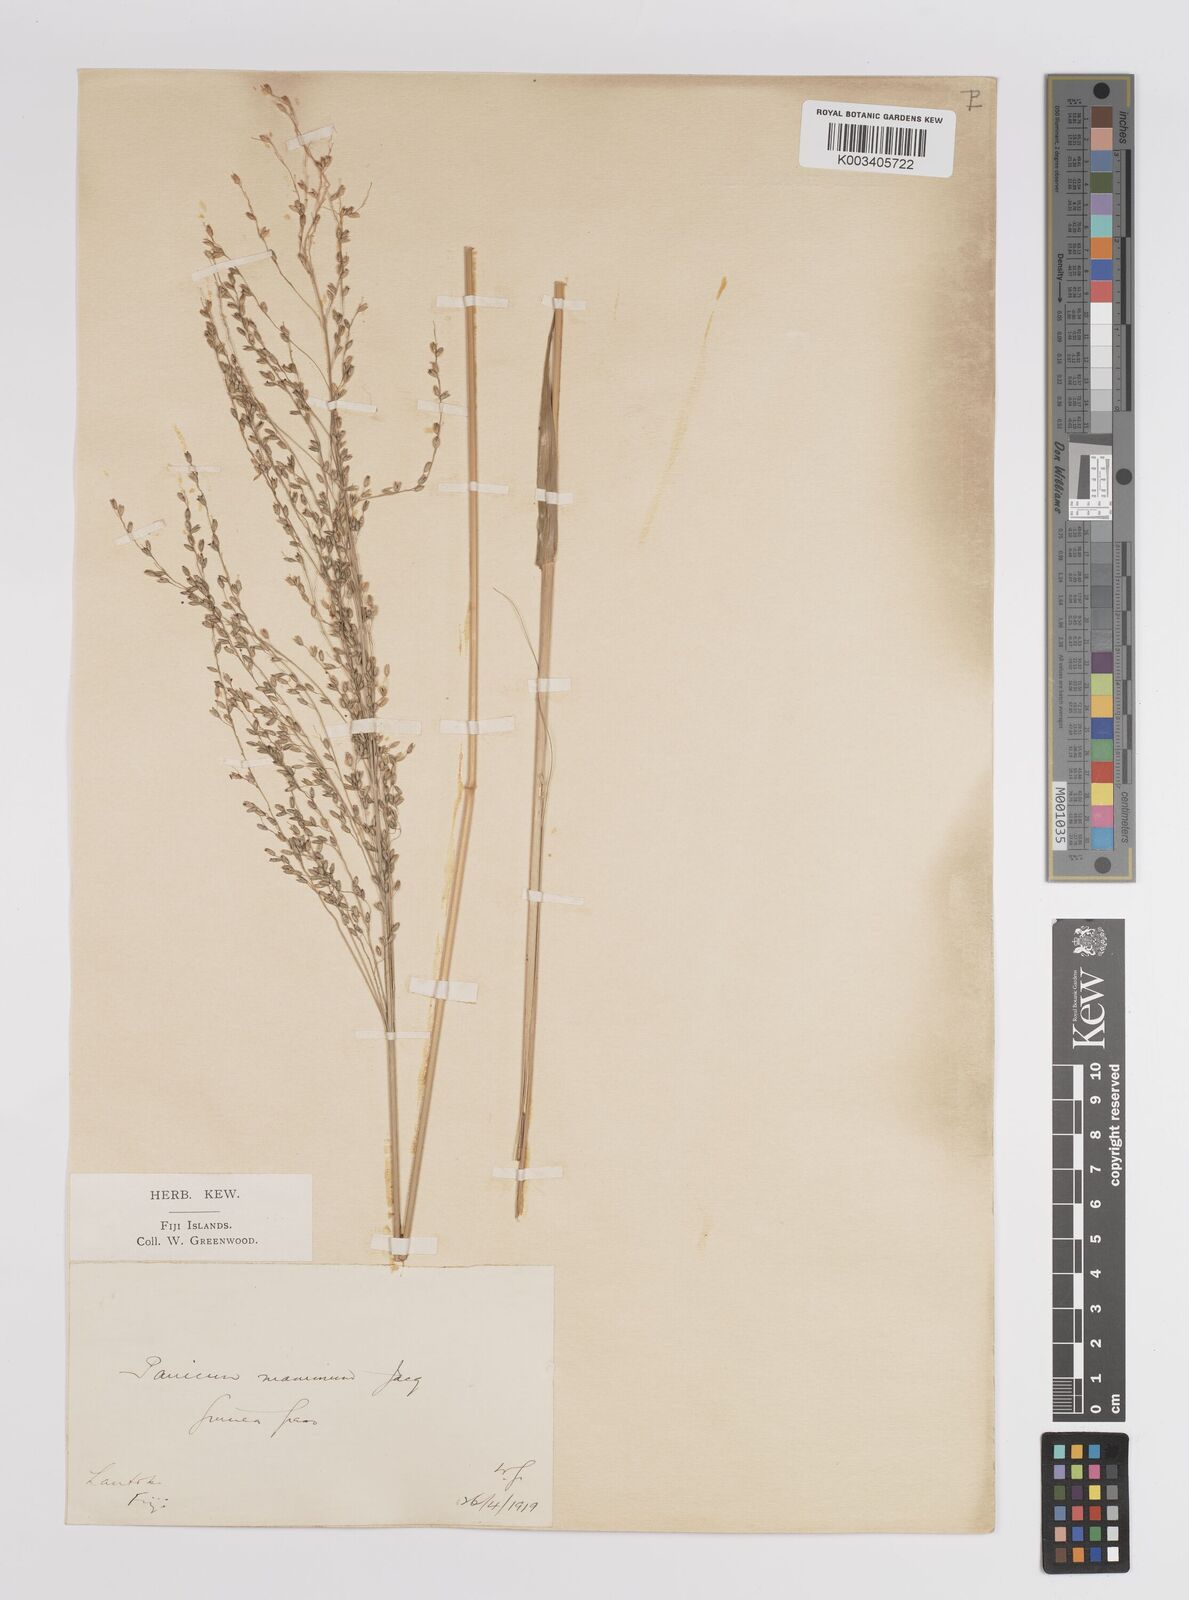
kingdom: Plantae
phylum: Tracheophyta
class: Liliopsida
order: Poales
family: Poaceae
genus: Megathyrsus
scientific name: Megathyrsus maximus
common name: Guineagrass
